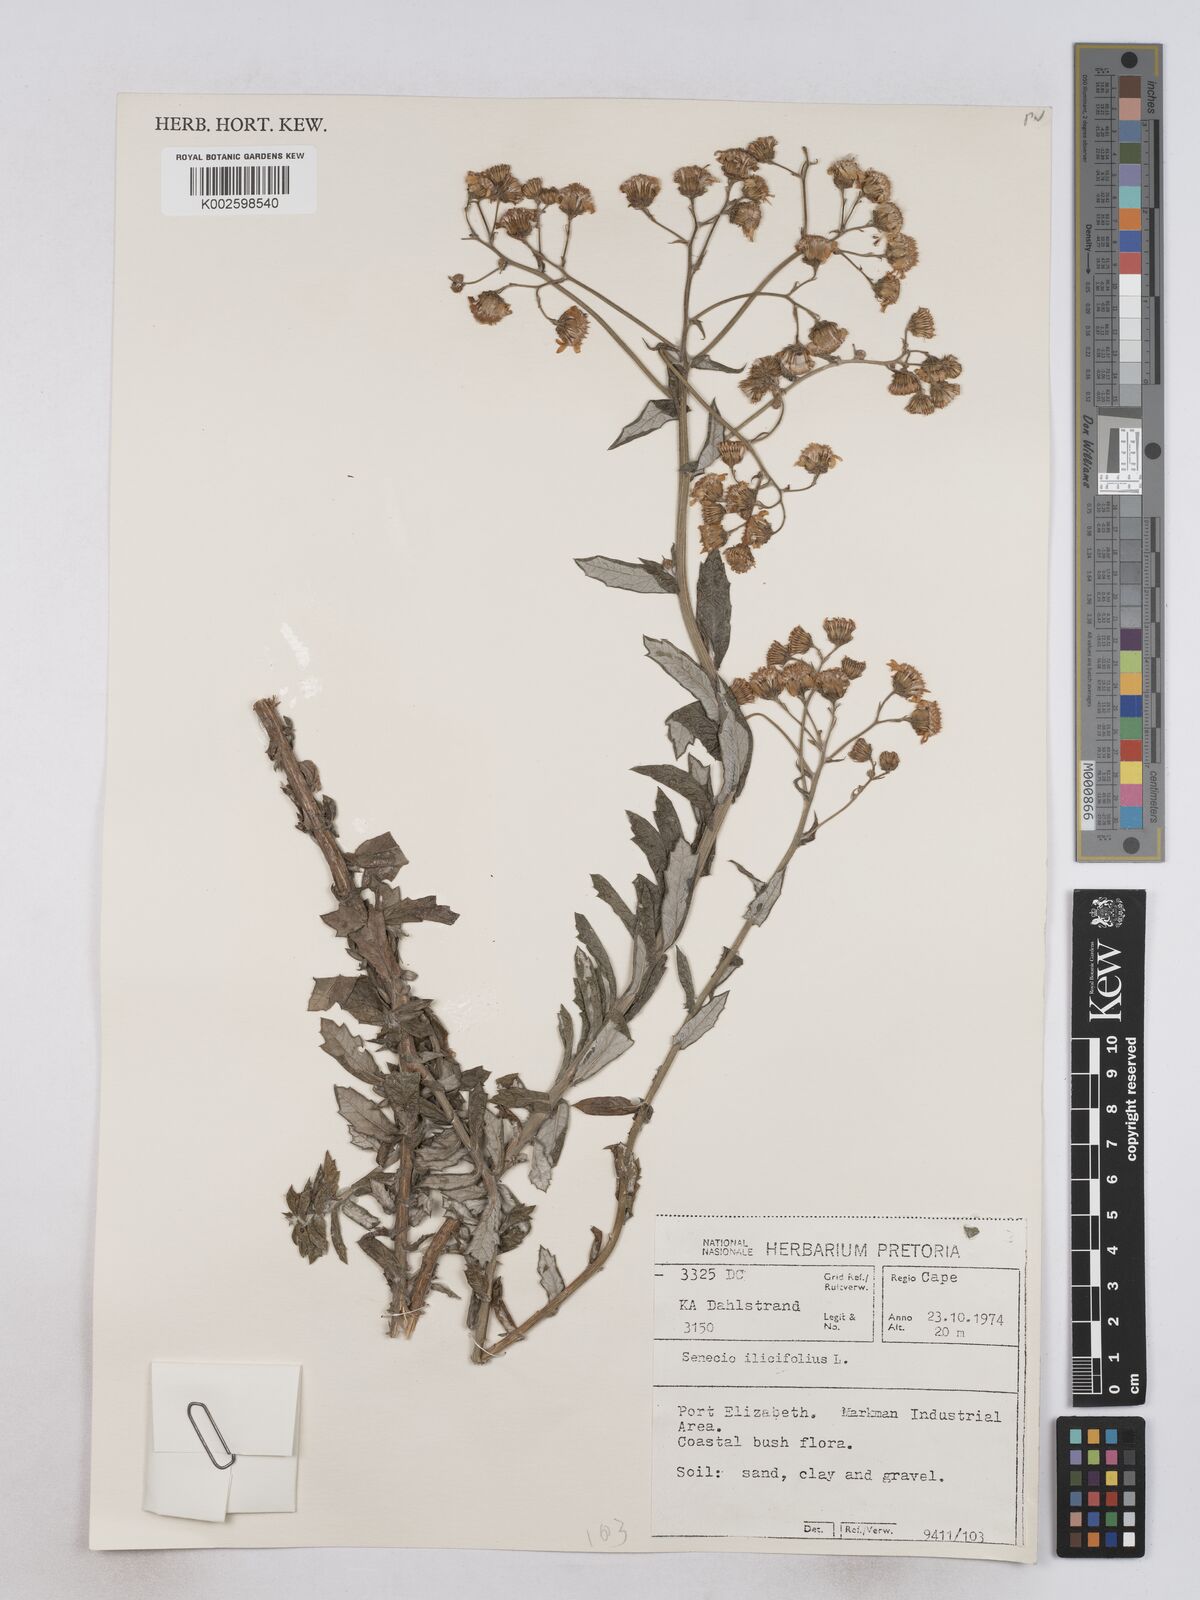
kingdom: Plantae
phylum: Tracheophyta
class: Magnoliopsida
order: Asterales
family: Asteraceae
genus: Senecio
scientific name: Senecio ilicifolius
